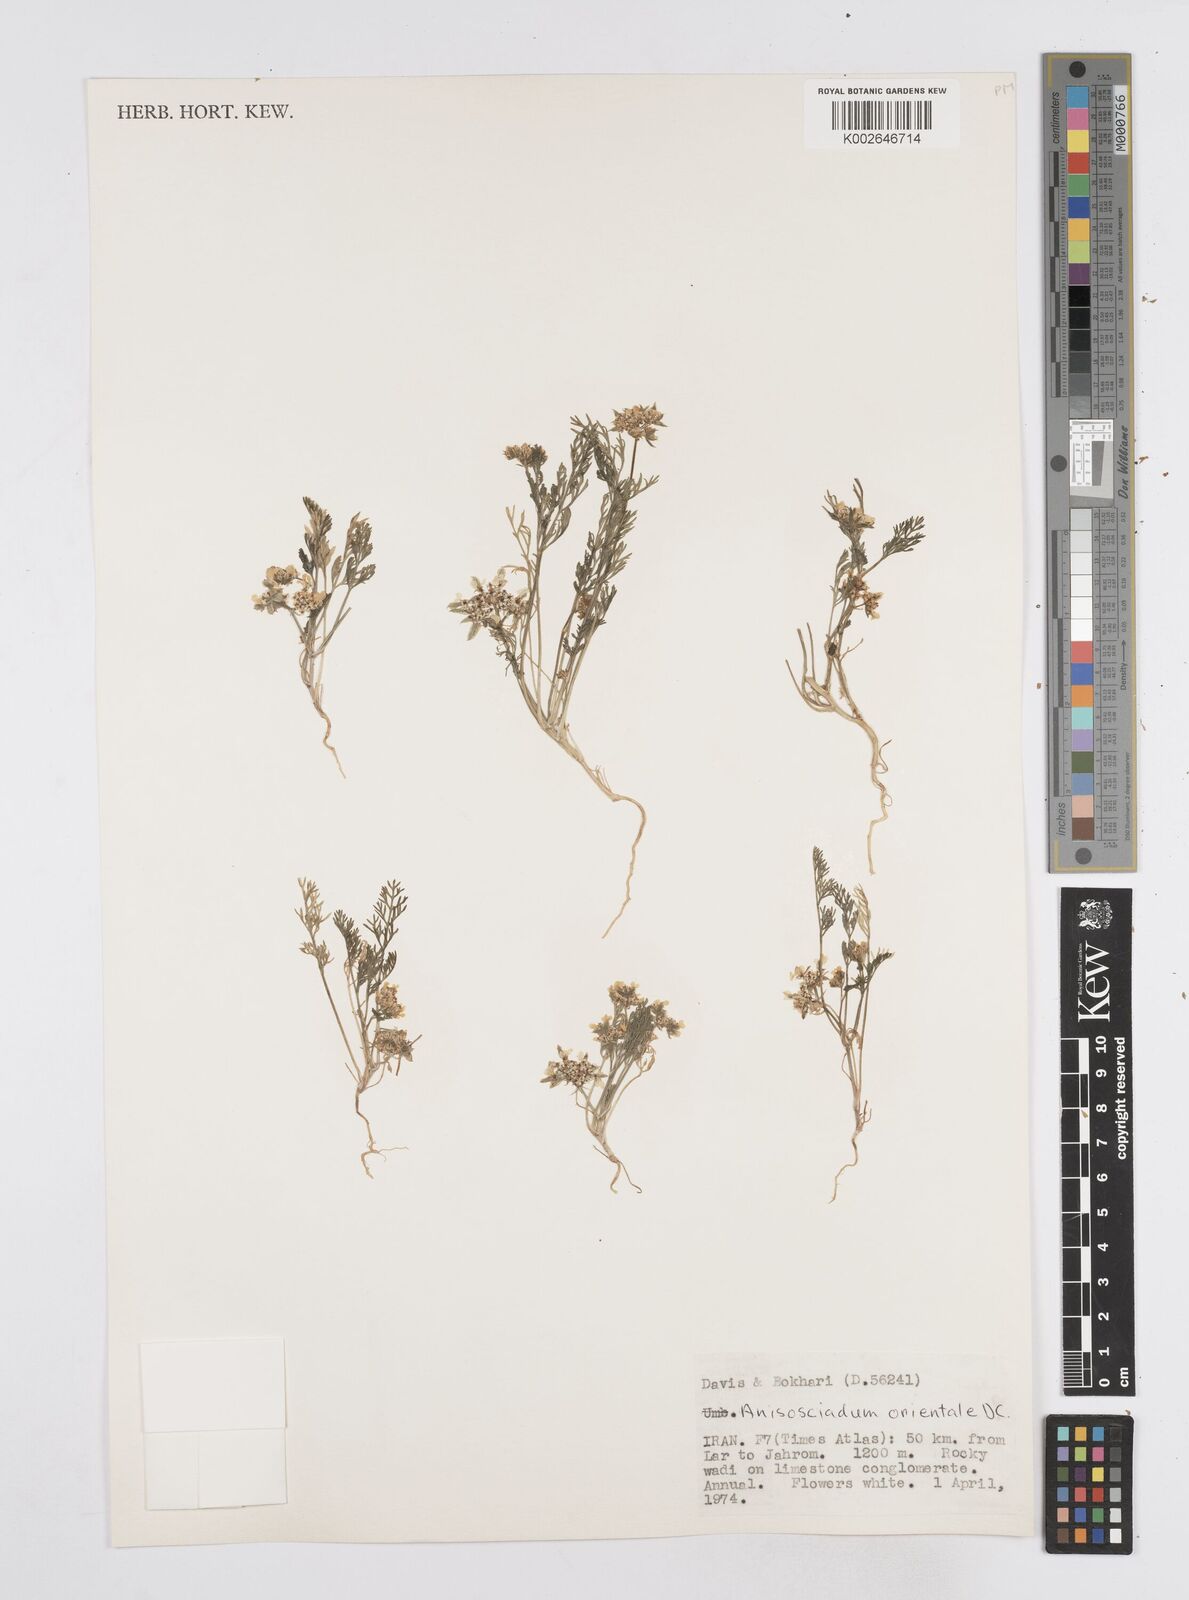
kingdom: Plantae
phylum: Tracheophyta
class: Magnoliopsida
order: Apiales
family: Apiaceae
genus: Anisosciadium
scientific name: Anisosciadium orientale
